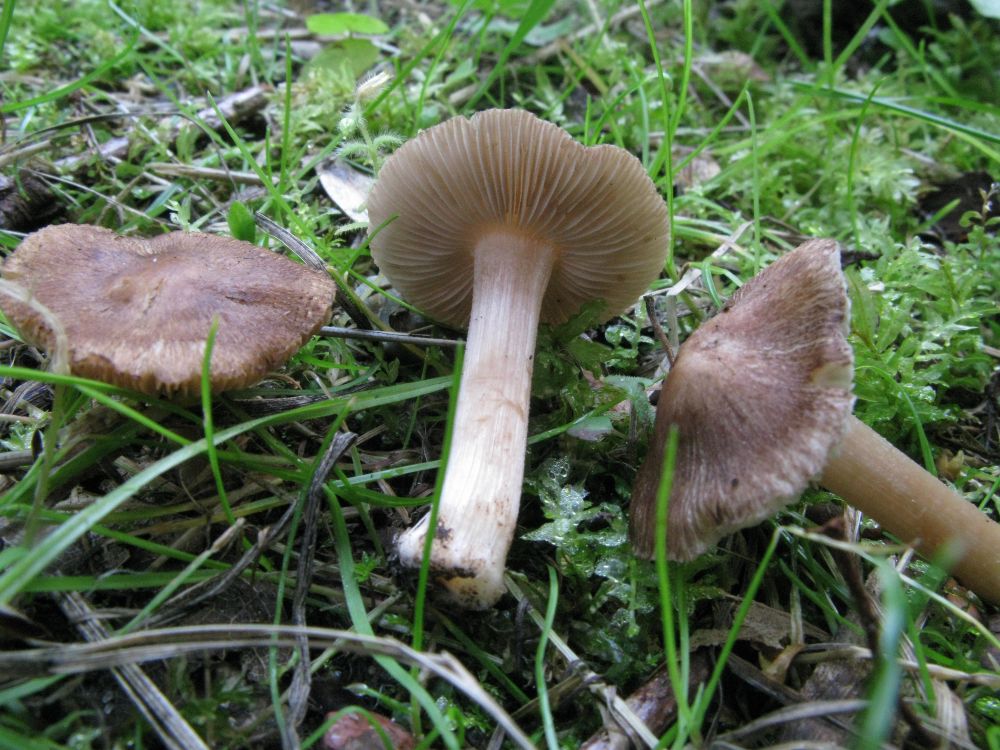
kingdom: Fungi
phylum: Basidiomycota
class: Agaricomycetes
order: Agaricales
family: Inocybaceae
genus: Inocybe
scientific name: Inocybe albomarginata
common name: lysrandet trævlhat
